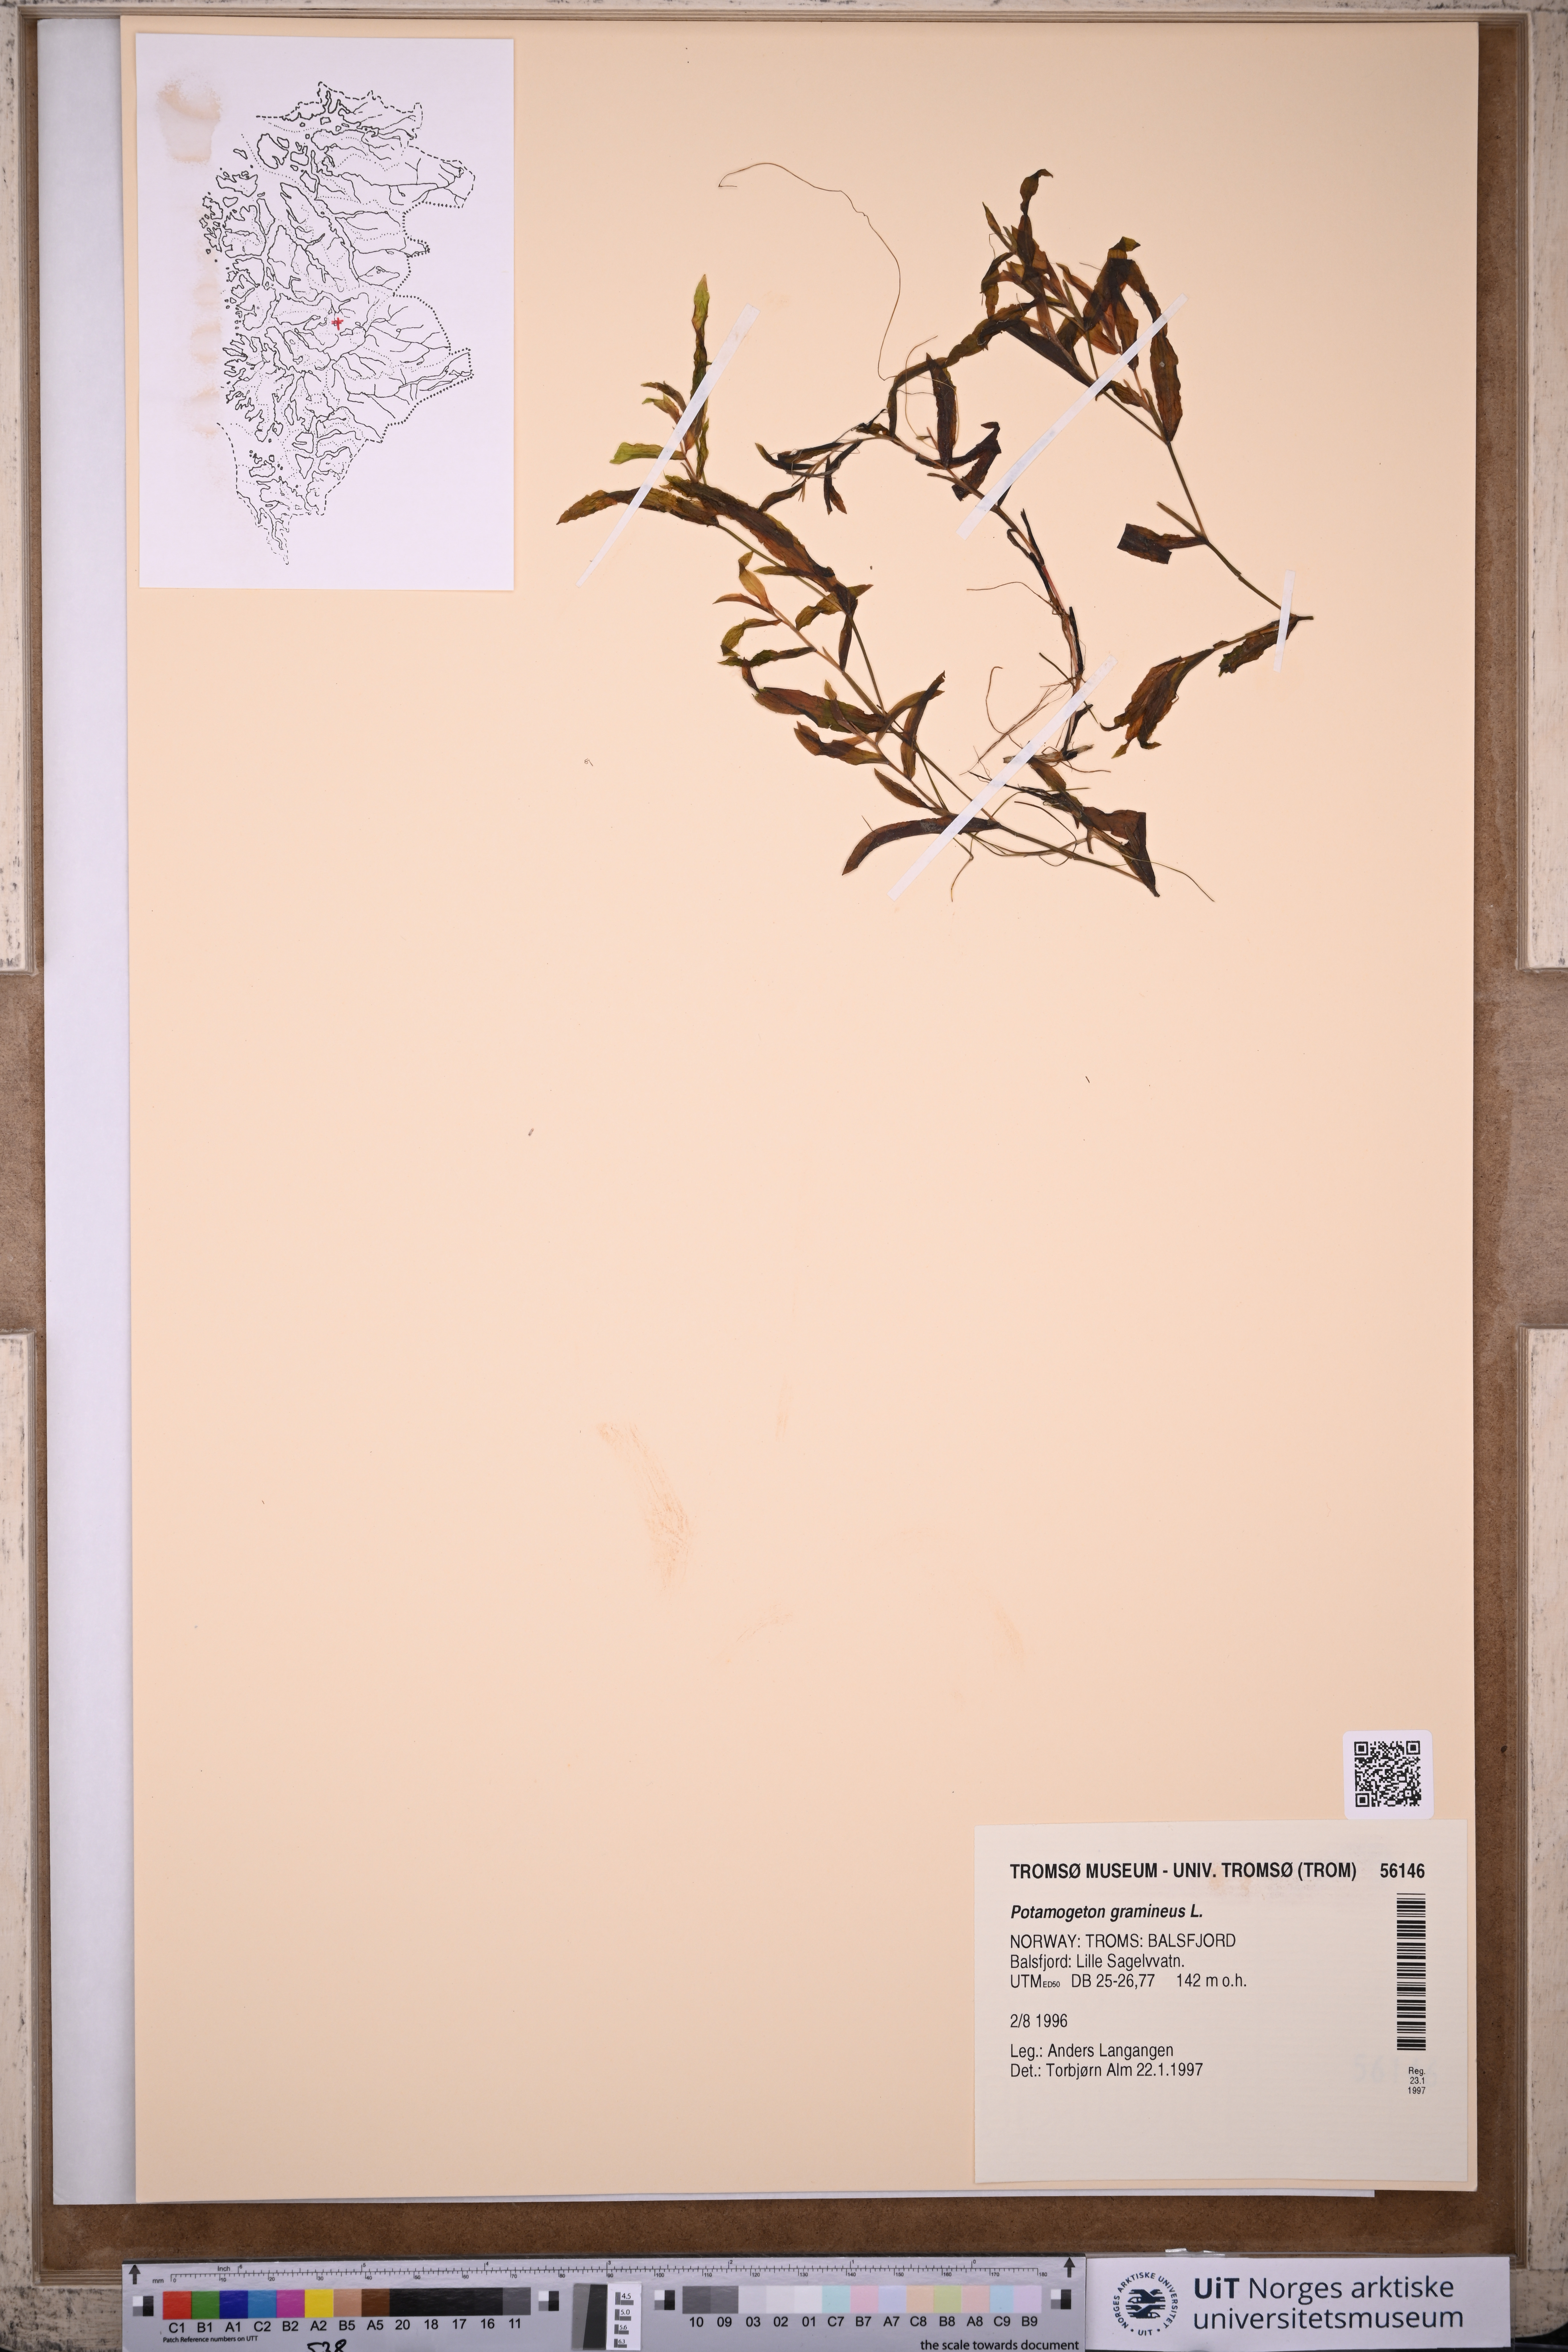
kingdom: Plantae
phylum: Tracheophyta
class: Liliopsida
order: Alismatales
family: Potamogetonaceae
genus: Potamogeton
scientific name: Potamogeton gramineus
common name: Various-leaved pondweed
